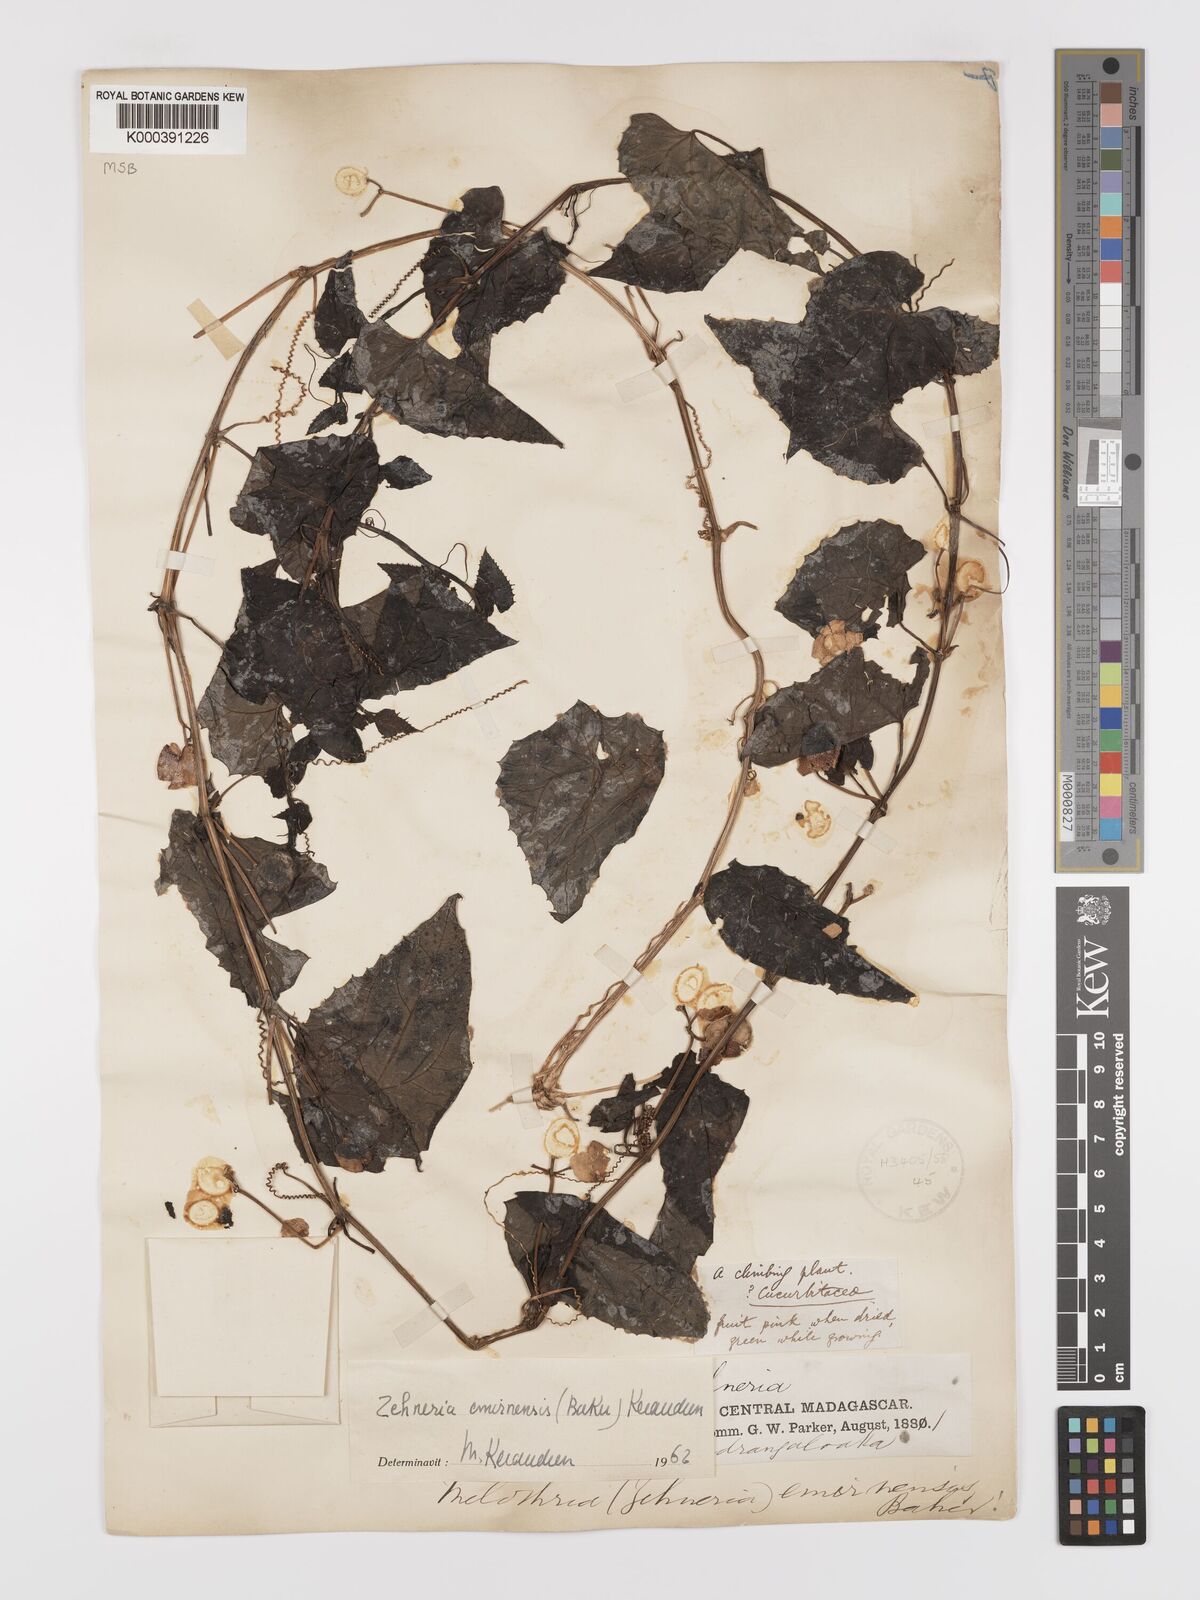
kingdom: Plantae
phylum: Tracheophyta
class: Magnoliopsida
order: Cucurbitales
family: Cucurbitaceae
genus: Zehneria
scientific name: Zehneria emirnensis
